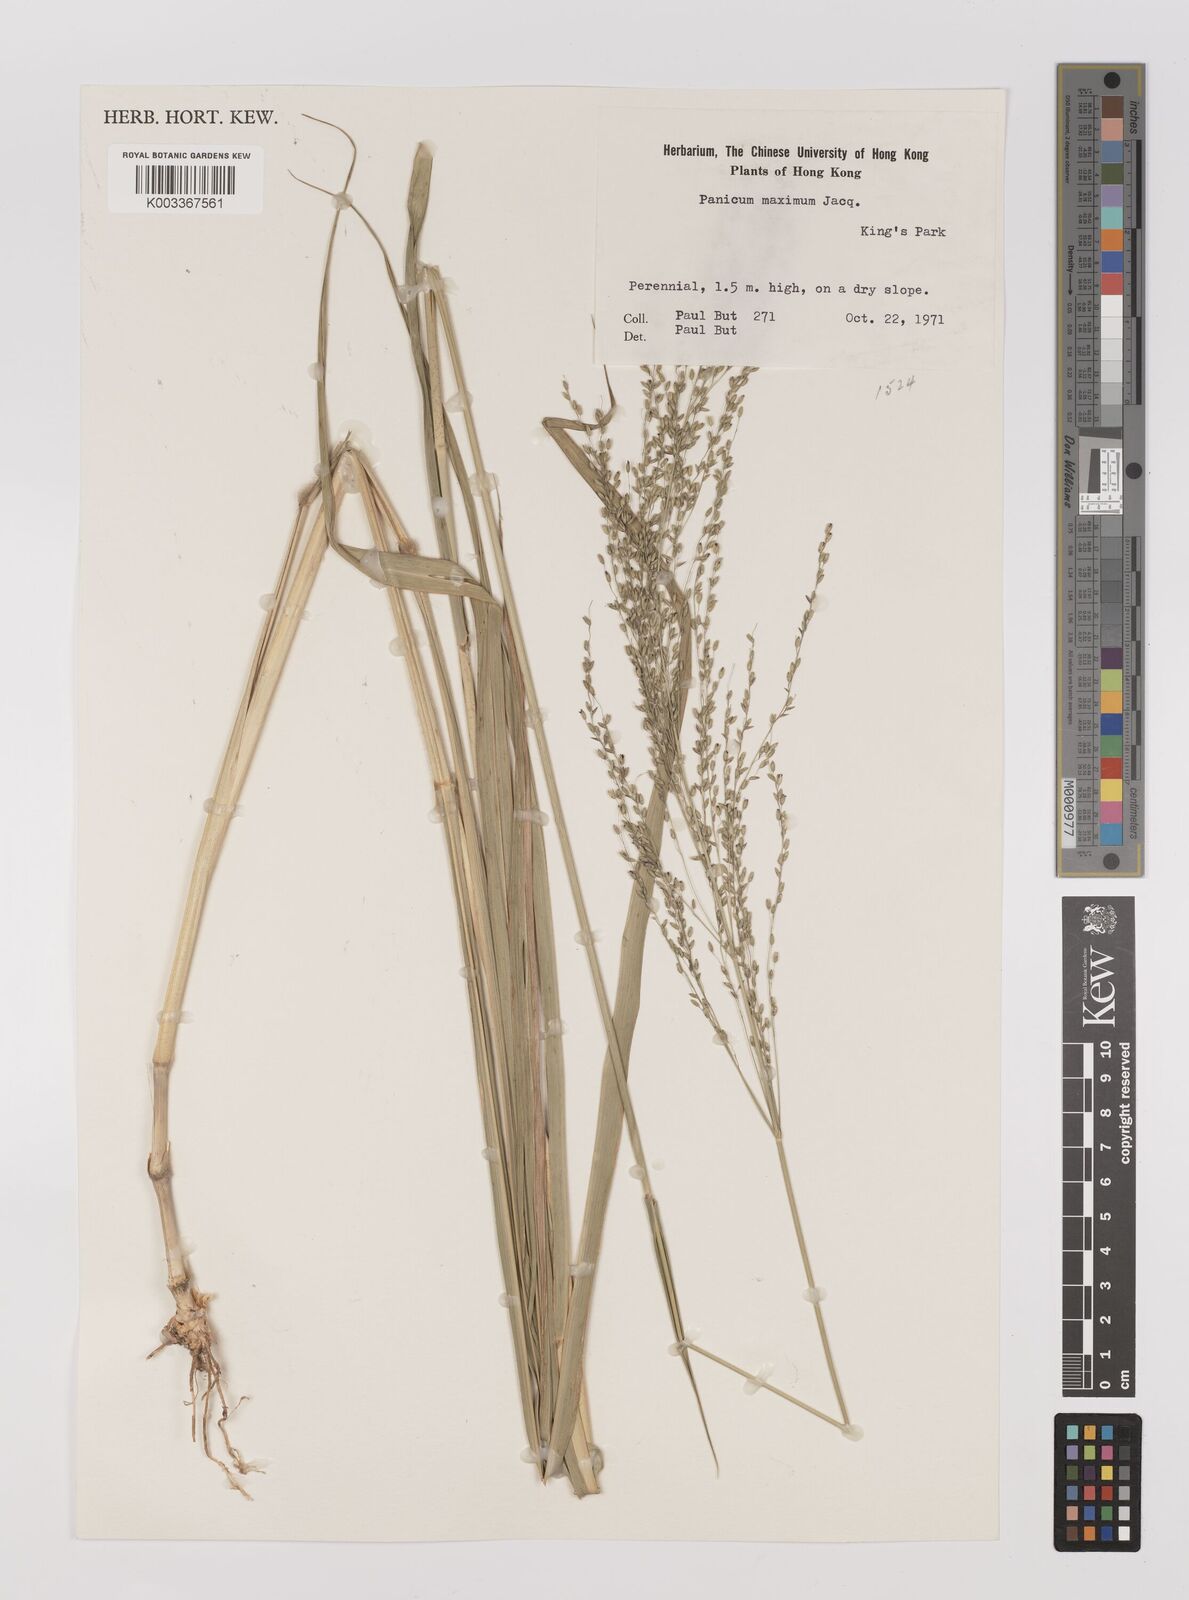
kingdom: Plantae
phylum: Tracheophyta
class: Liliopsida
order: Poales
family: Poaceae
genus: Megathyrsus
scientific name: Megathyrsus maximus
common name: Guineagrass
